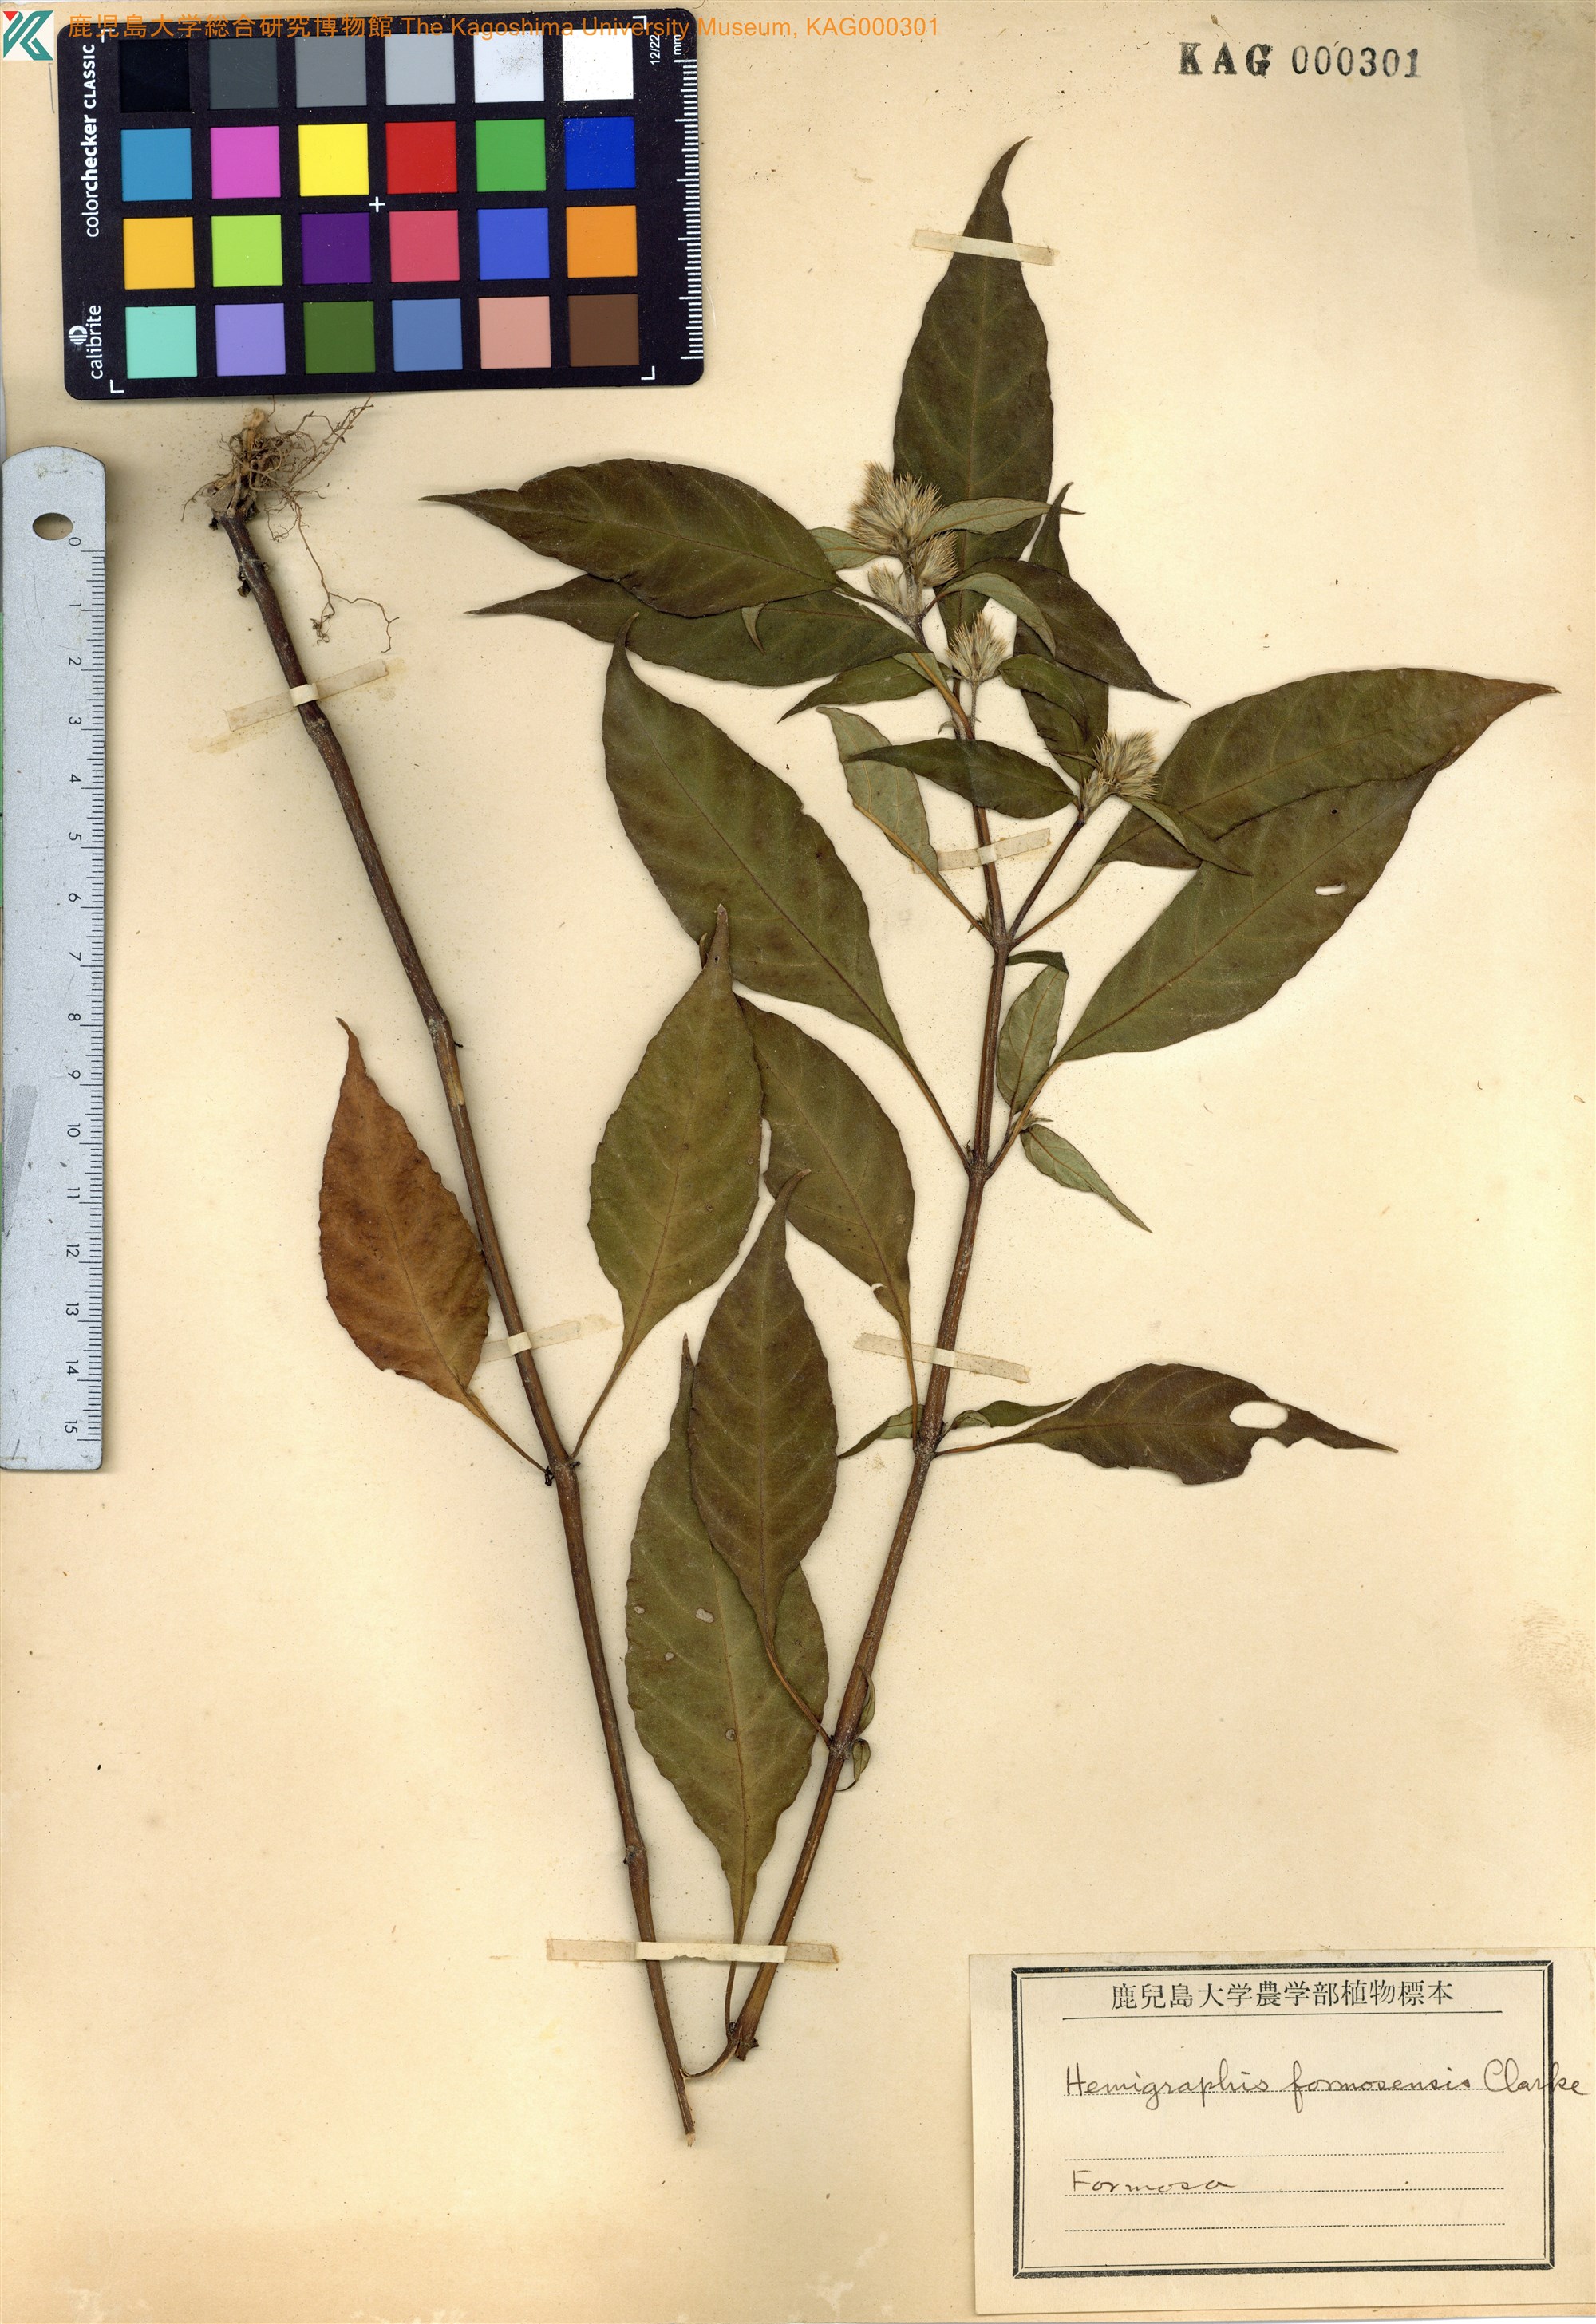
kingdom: Plantae
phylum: Tracheophyta
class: Magnoliopsida
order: Lamiales
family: Acanthaceae
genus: Lepidagathis
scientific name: Lepidagathis formosensis
